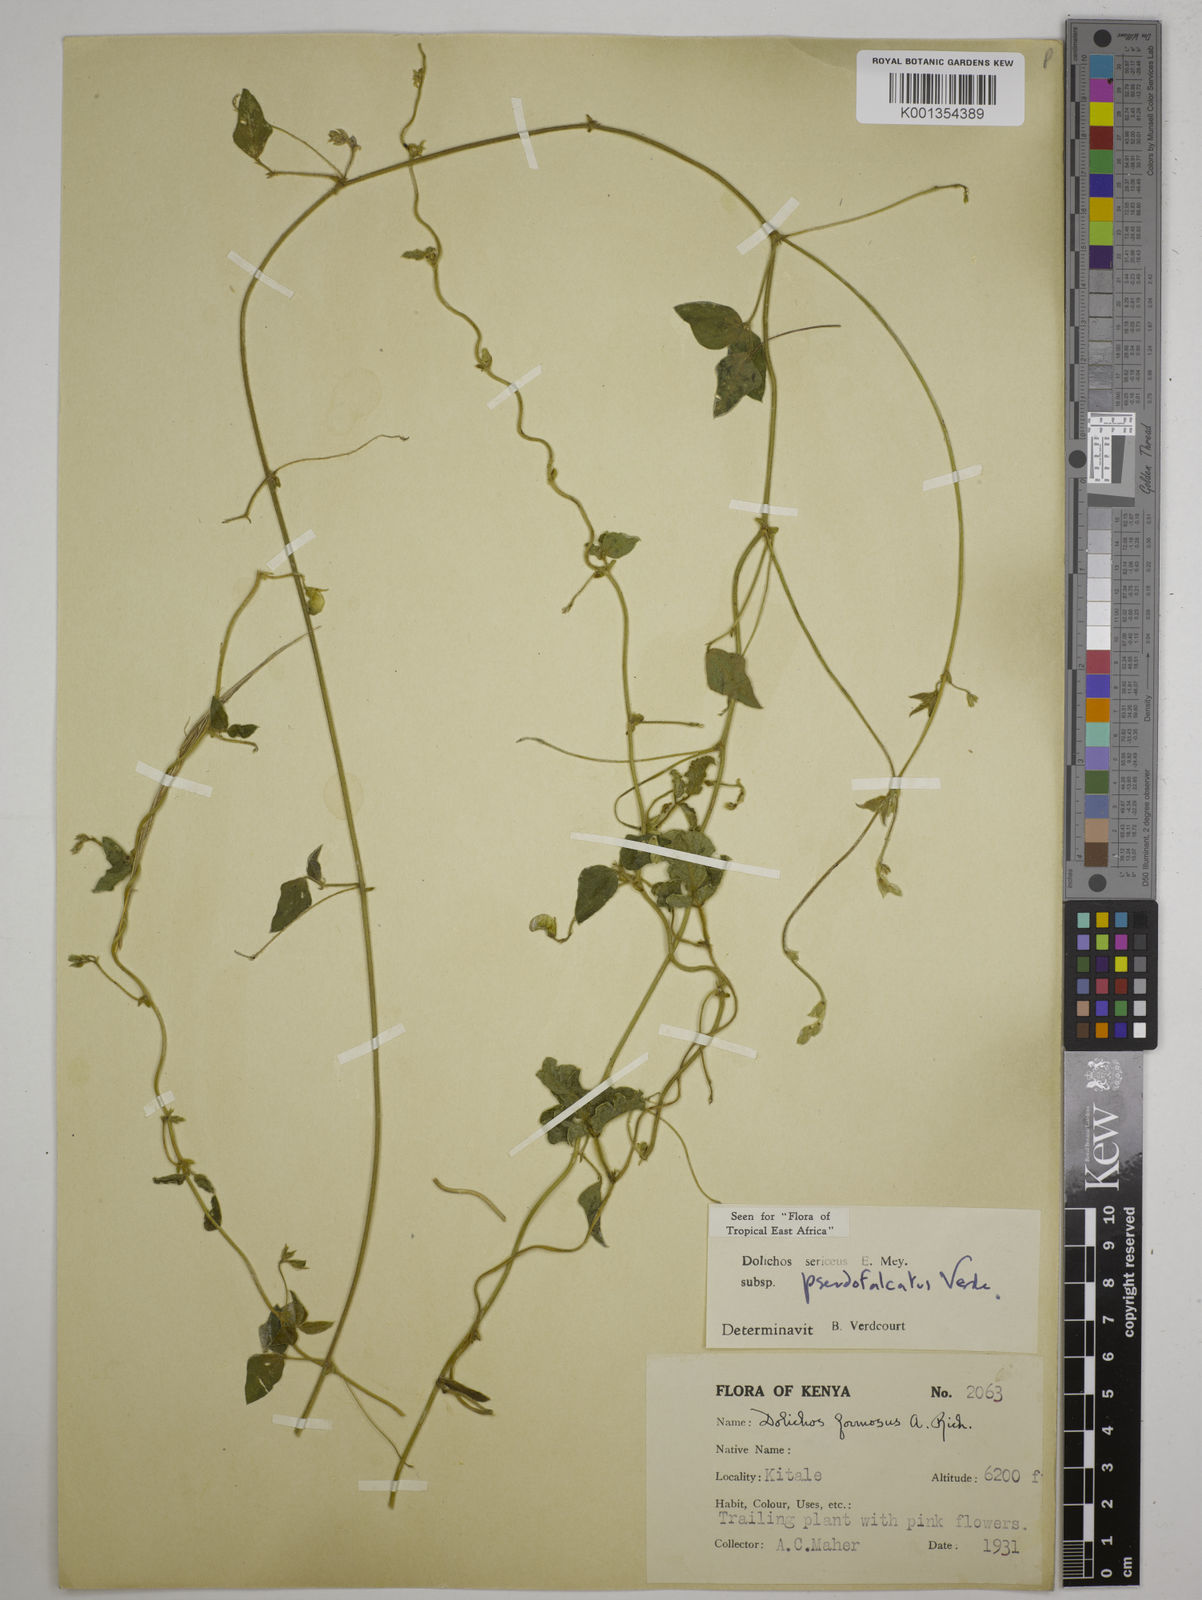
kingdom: Plantae
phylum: Tracheophyta
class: Magnoliopsida
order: Fabales
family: Fabaceae
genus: Dolichos
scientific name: Dolichos
